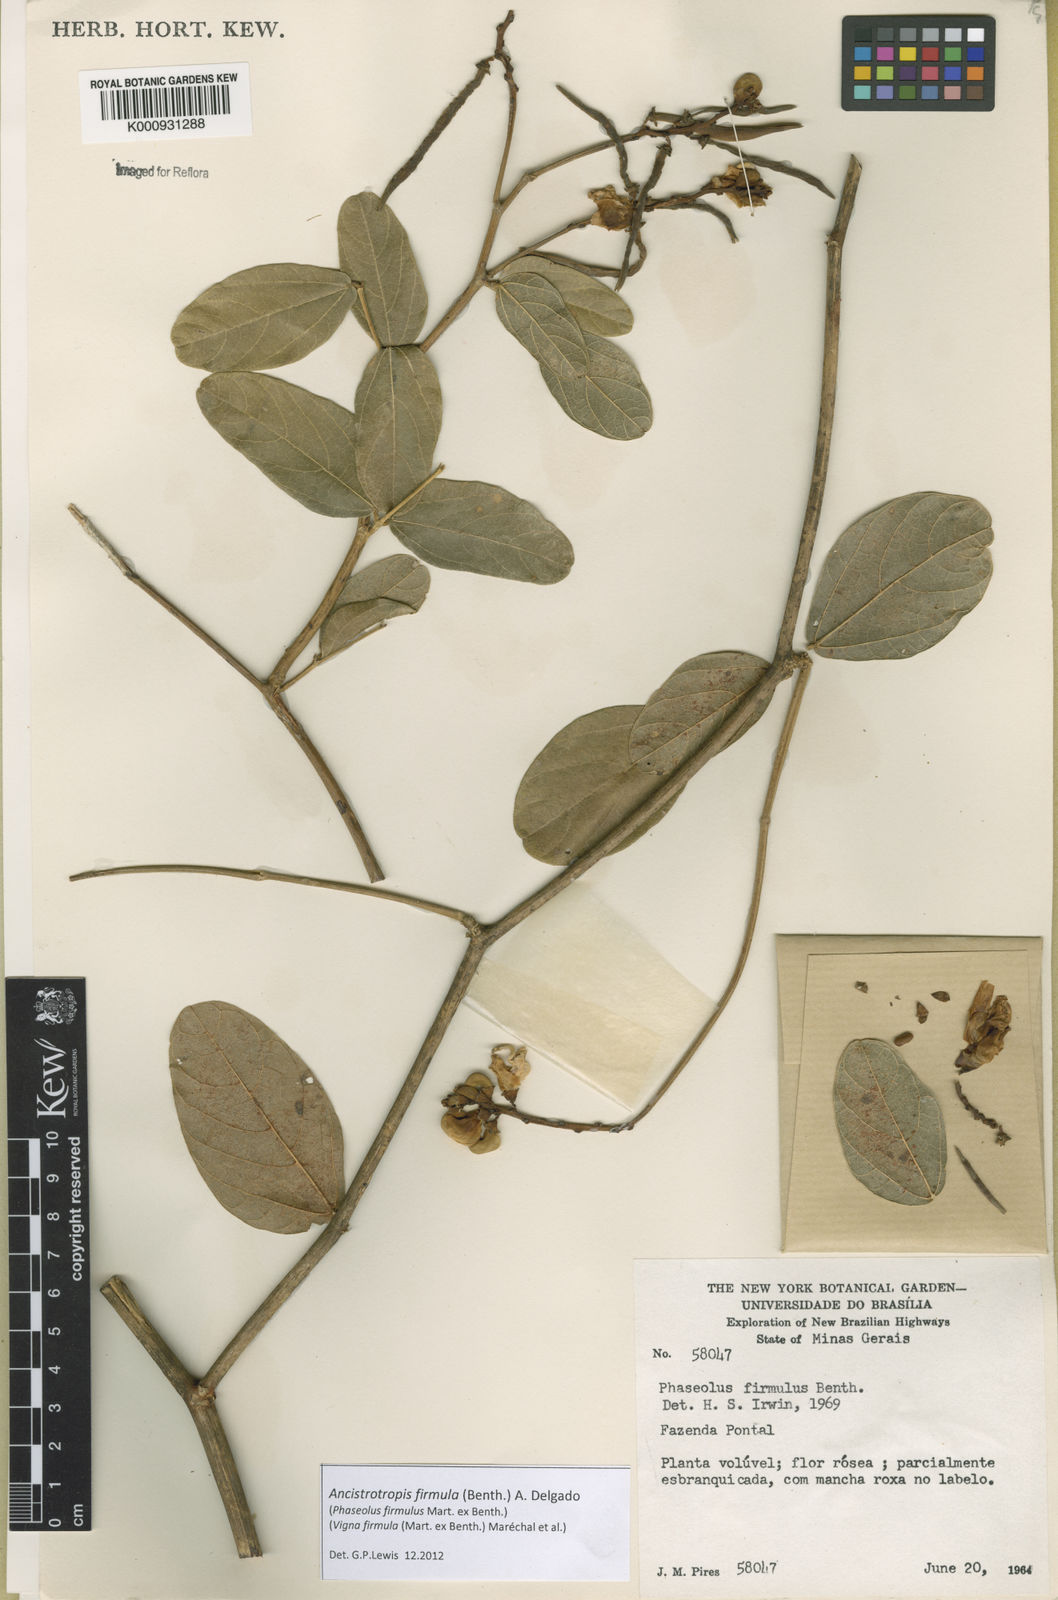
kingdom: Plantae
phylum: Tracheophyta
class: Magnoliopsida
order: Fabales
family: Fabaceae
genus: Ancistrotropis
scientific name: Ancistrotropis firmula
